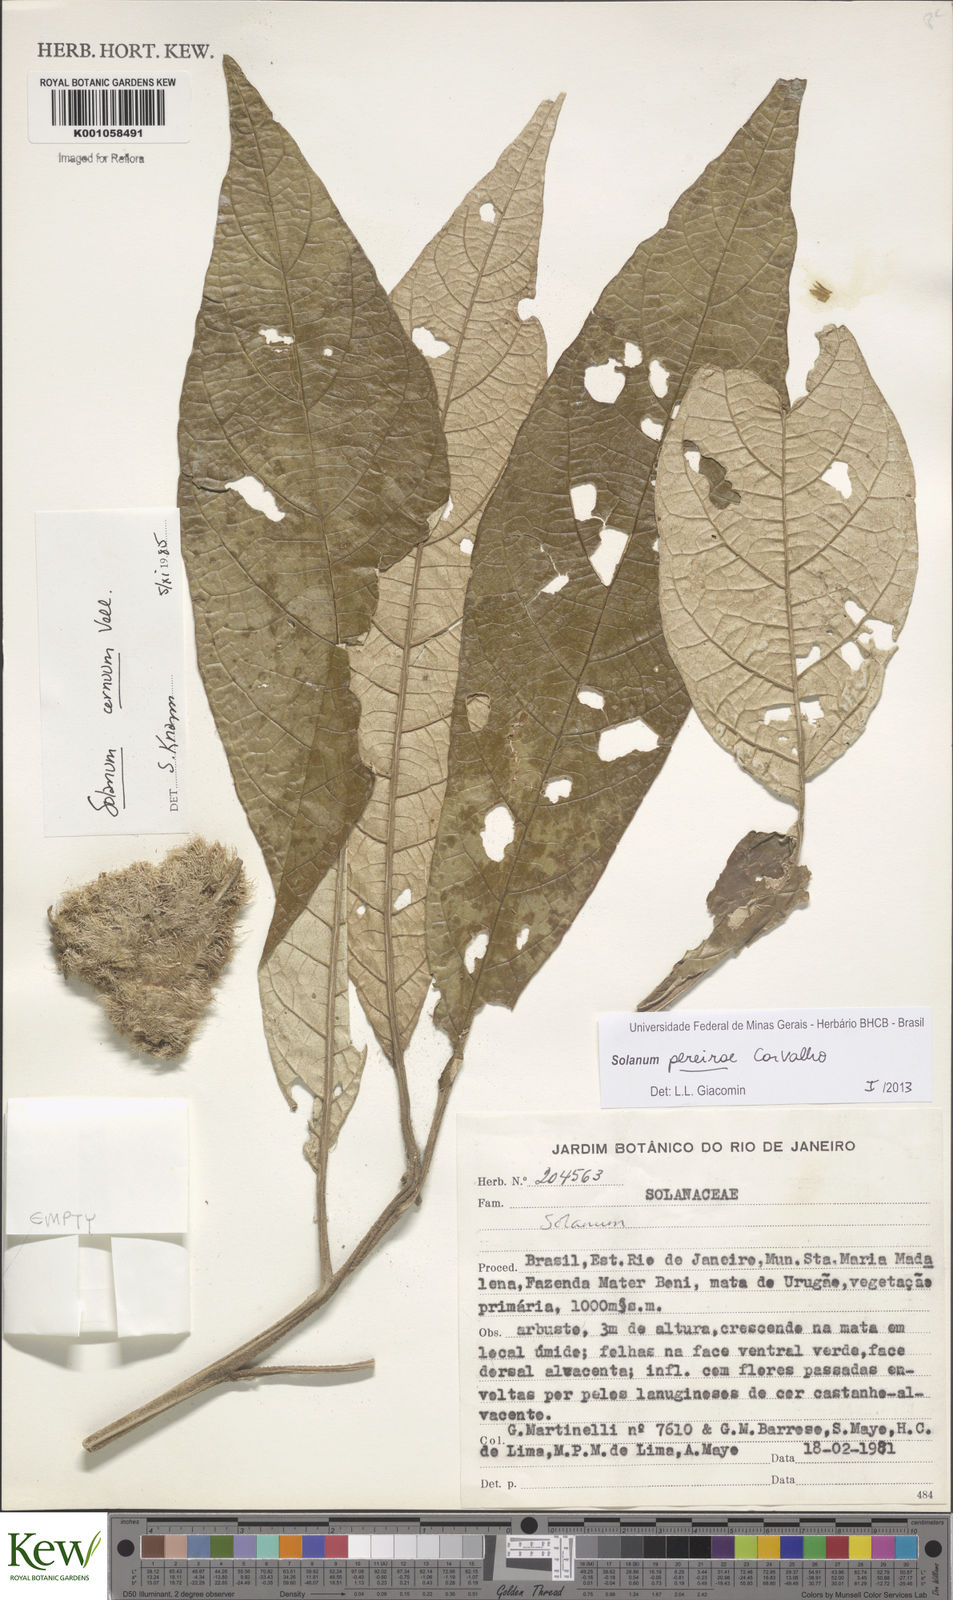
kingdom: Plantae
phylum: Tracheophyta
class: Magnoliopsida
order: Solanales
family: Solanaceae
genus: Solanum
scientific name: Solanum
